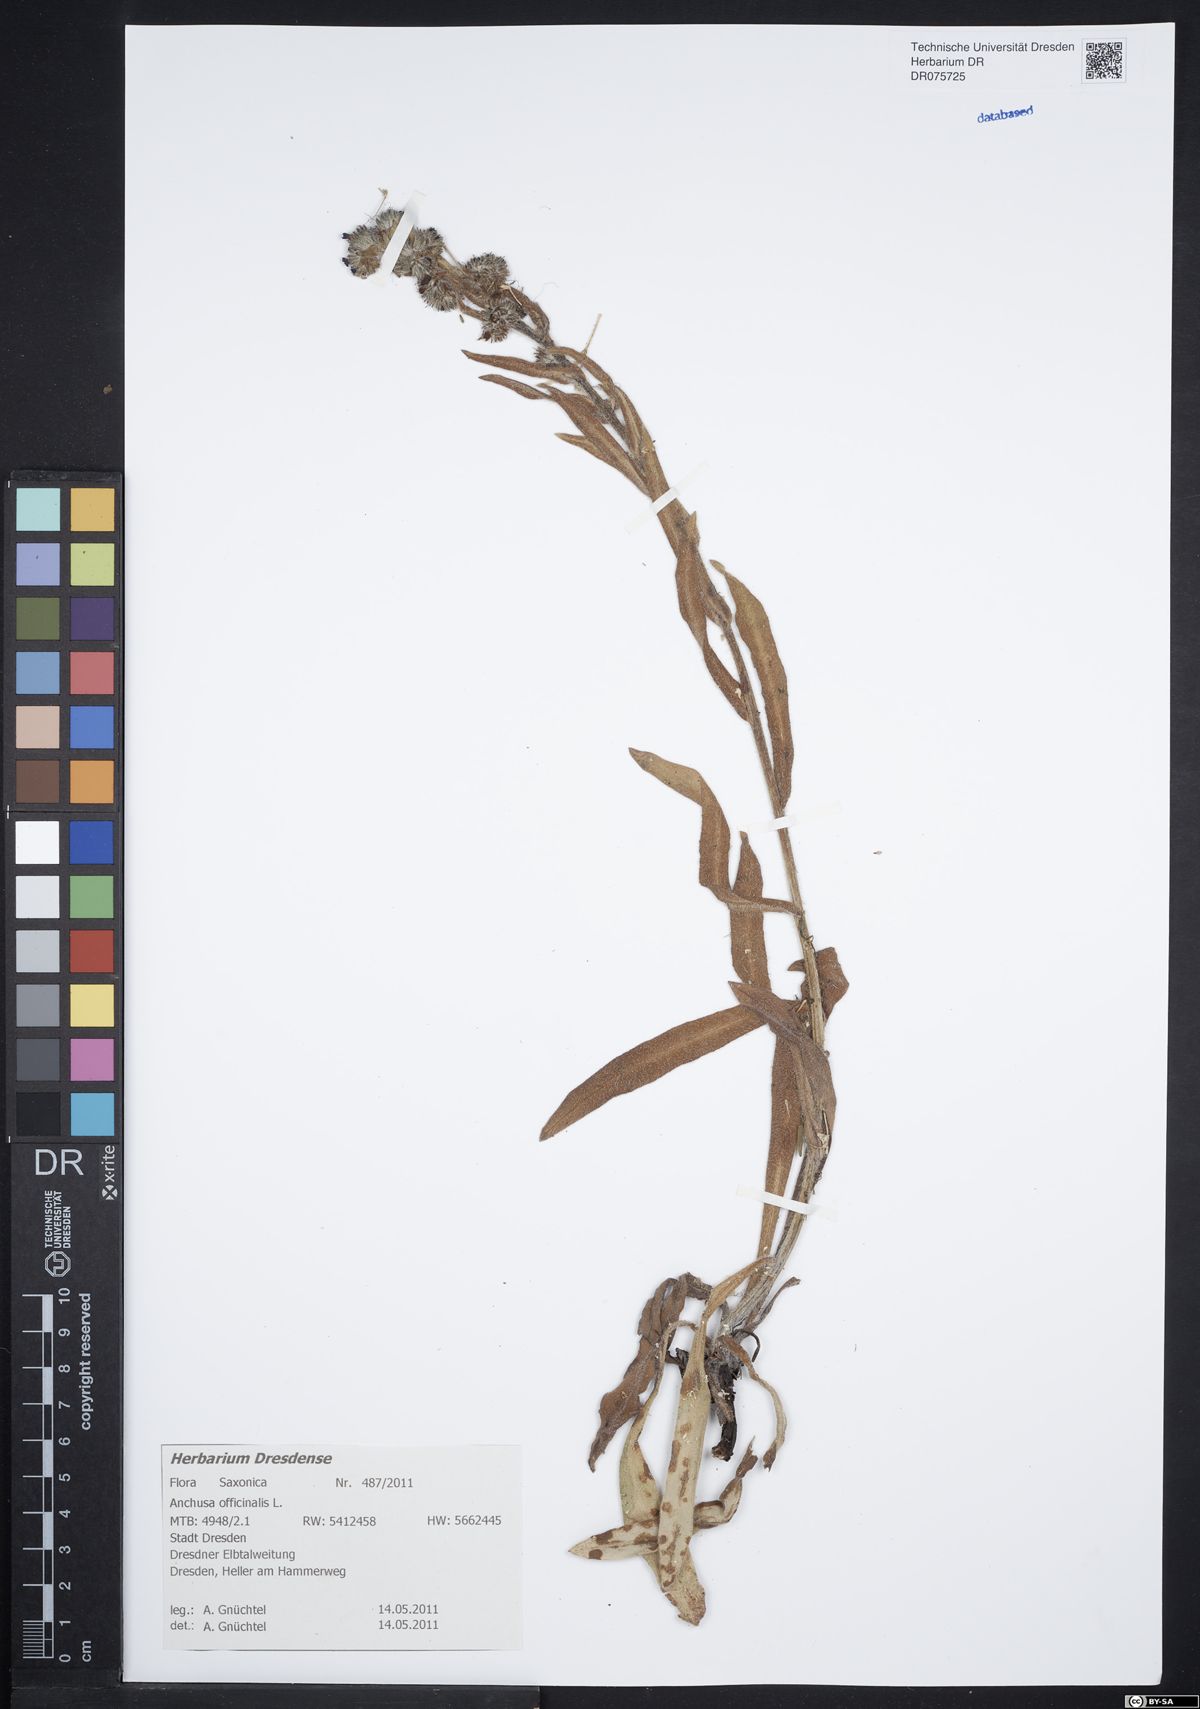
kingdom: Plantae
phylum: Tracheophyta
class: Magnoliopsida
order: Boraginales
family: Boraginaceae
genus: Anchusa
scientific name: Anchusa officinalis
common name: Alkanet
